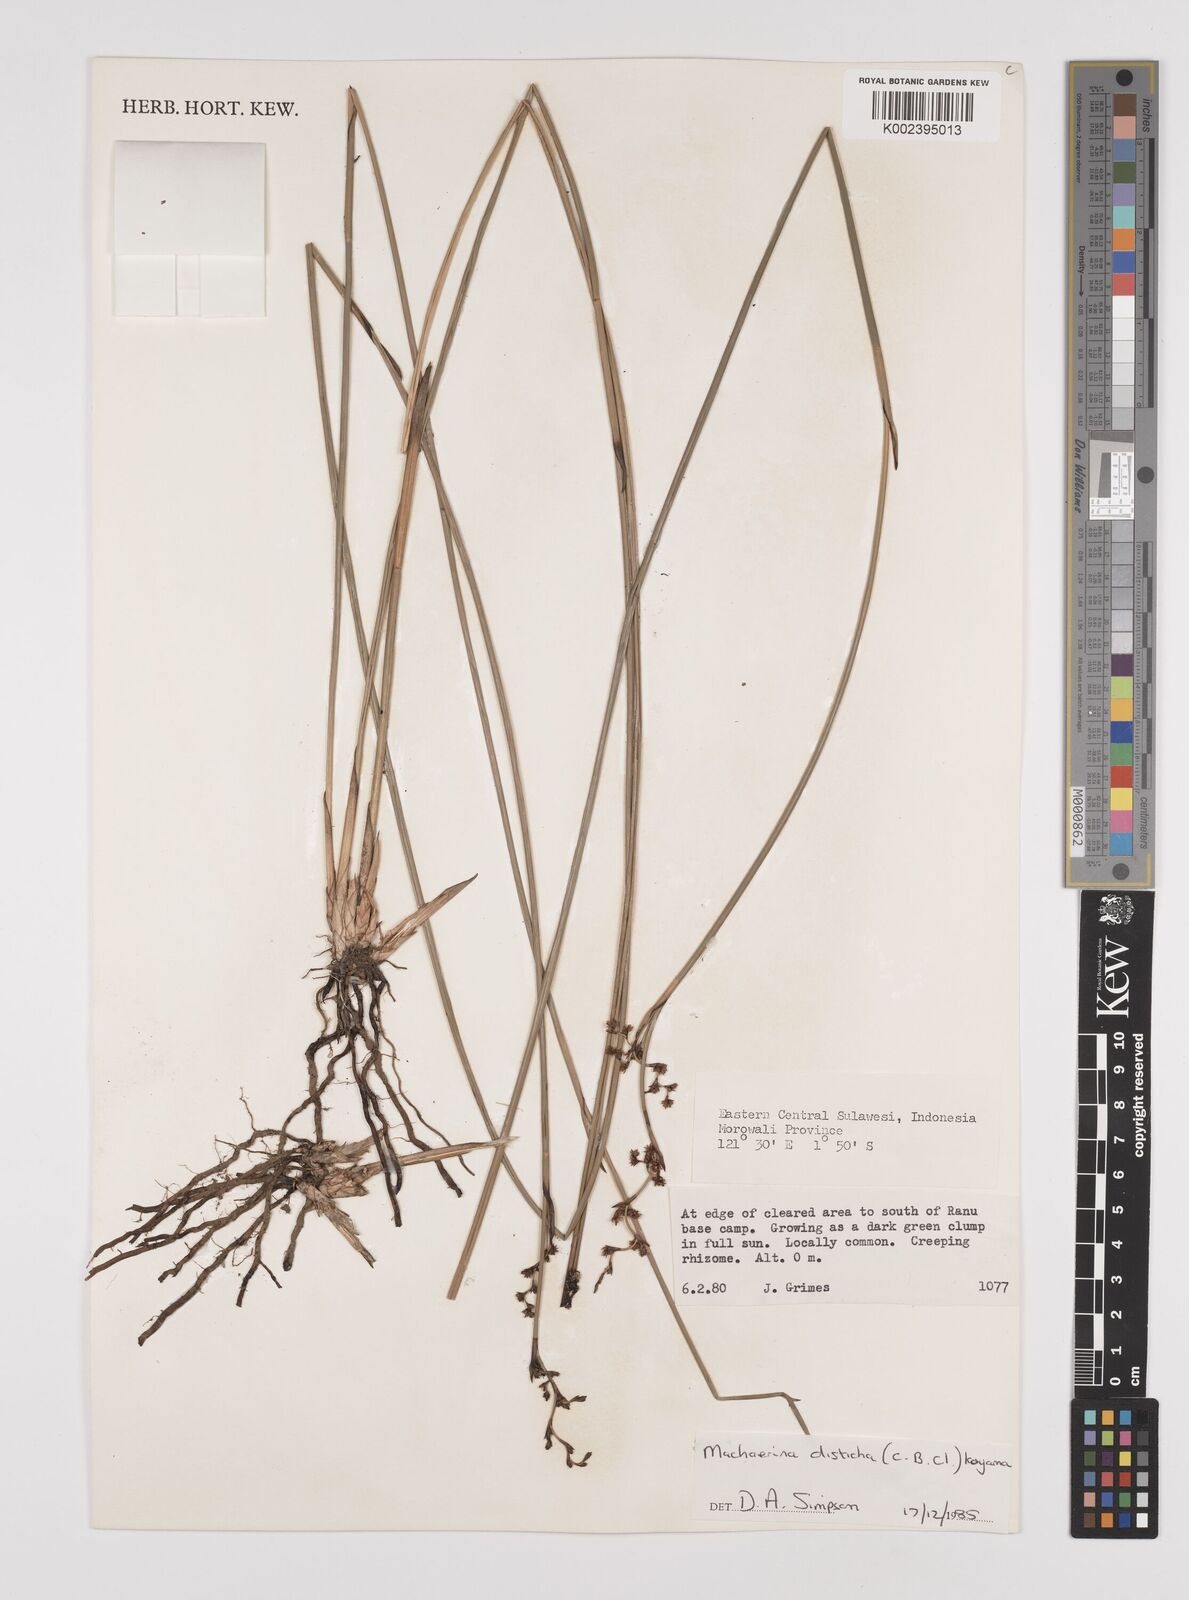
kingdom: Plantae
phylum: Tracheophyta
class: Liliopsida
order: Poales
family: Cyperaceae
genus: Machaerina
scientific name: Machaerina disticha
